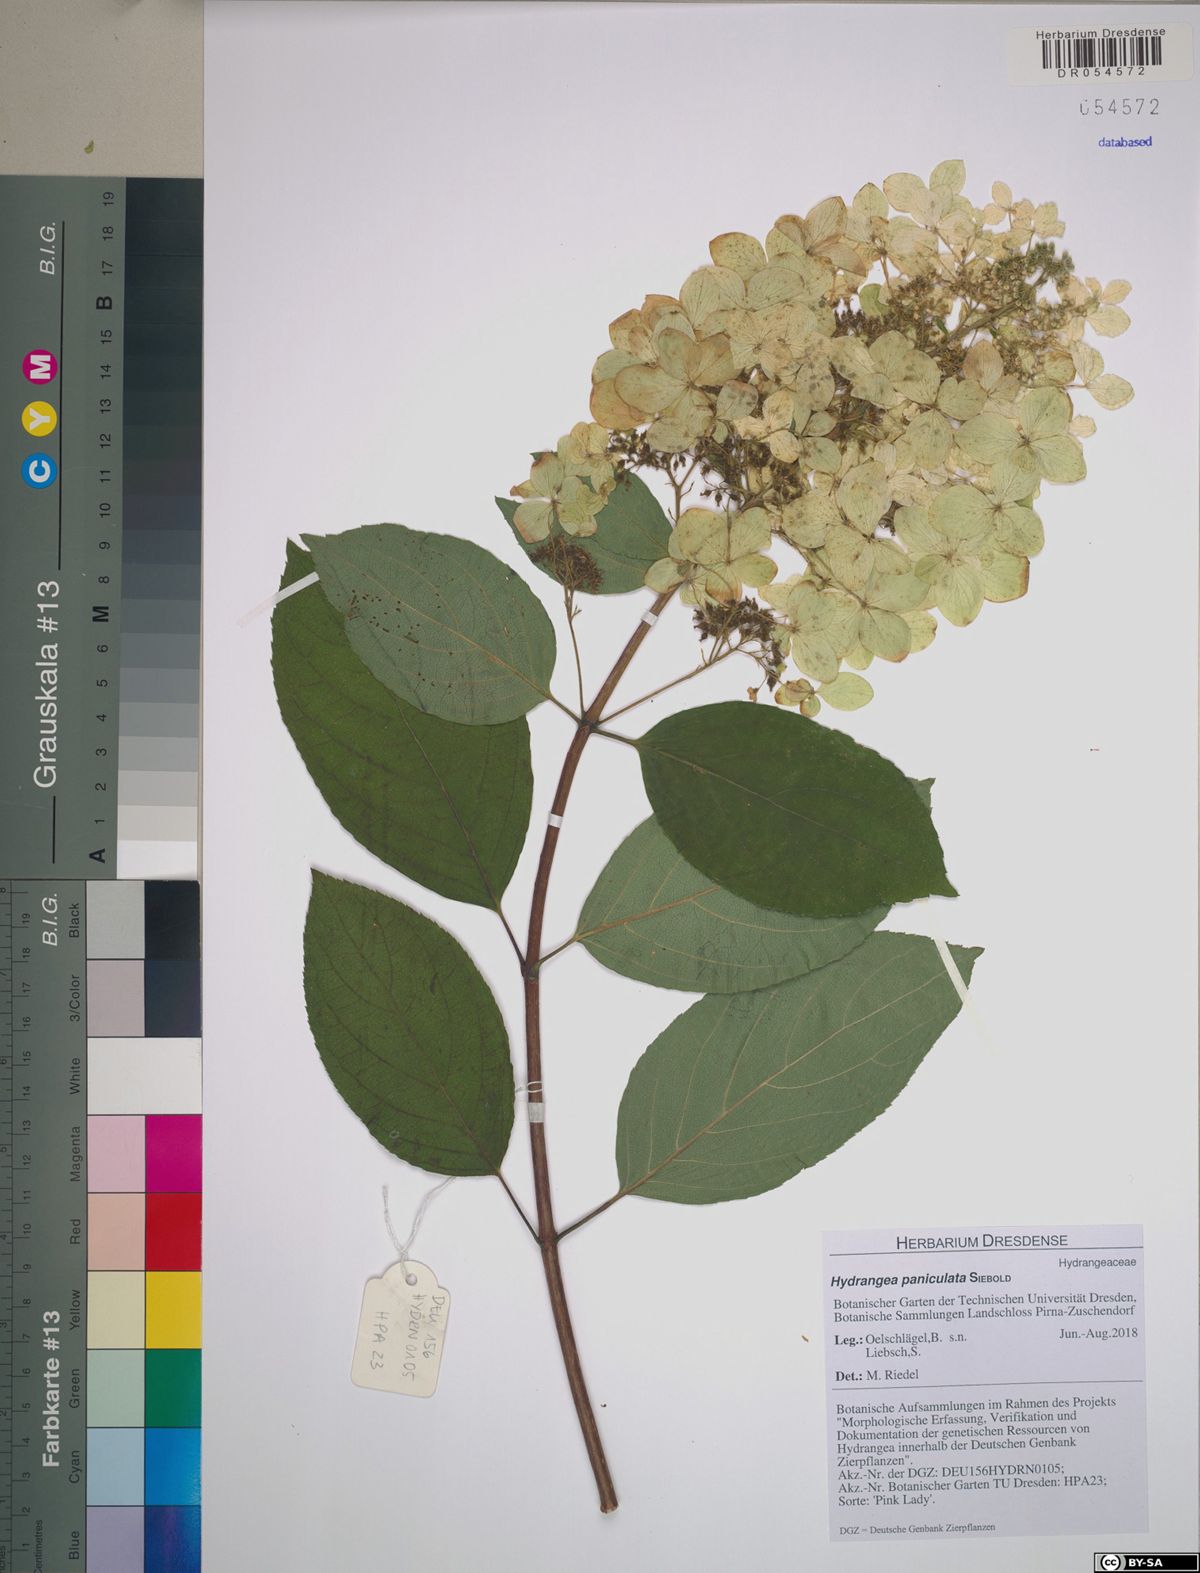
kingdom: Plantae
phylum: Tracheophyta
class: Magnoliopsida
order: Cornales
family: Hydrangeaceae
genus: Hydrangea
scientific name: Hydrangea paniculata
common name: Panicled hydrangea
